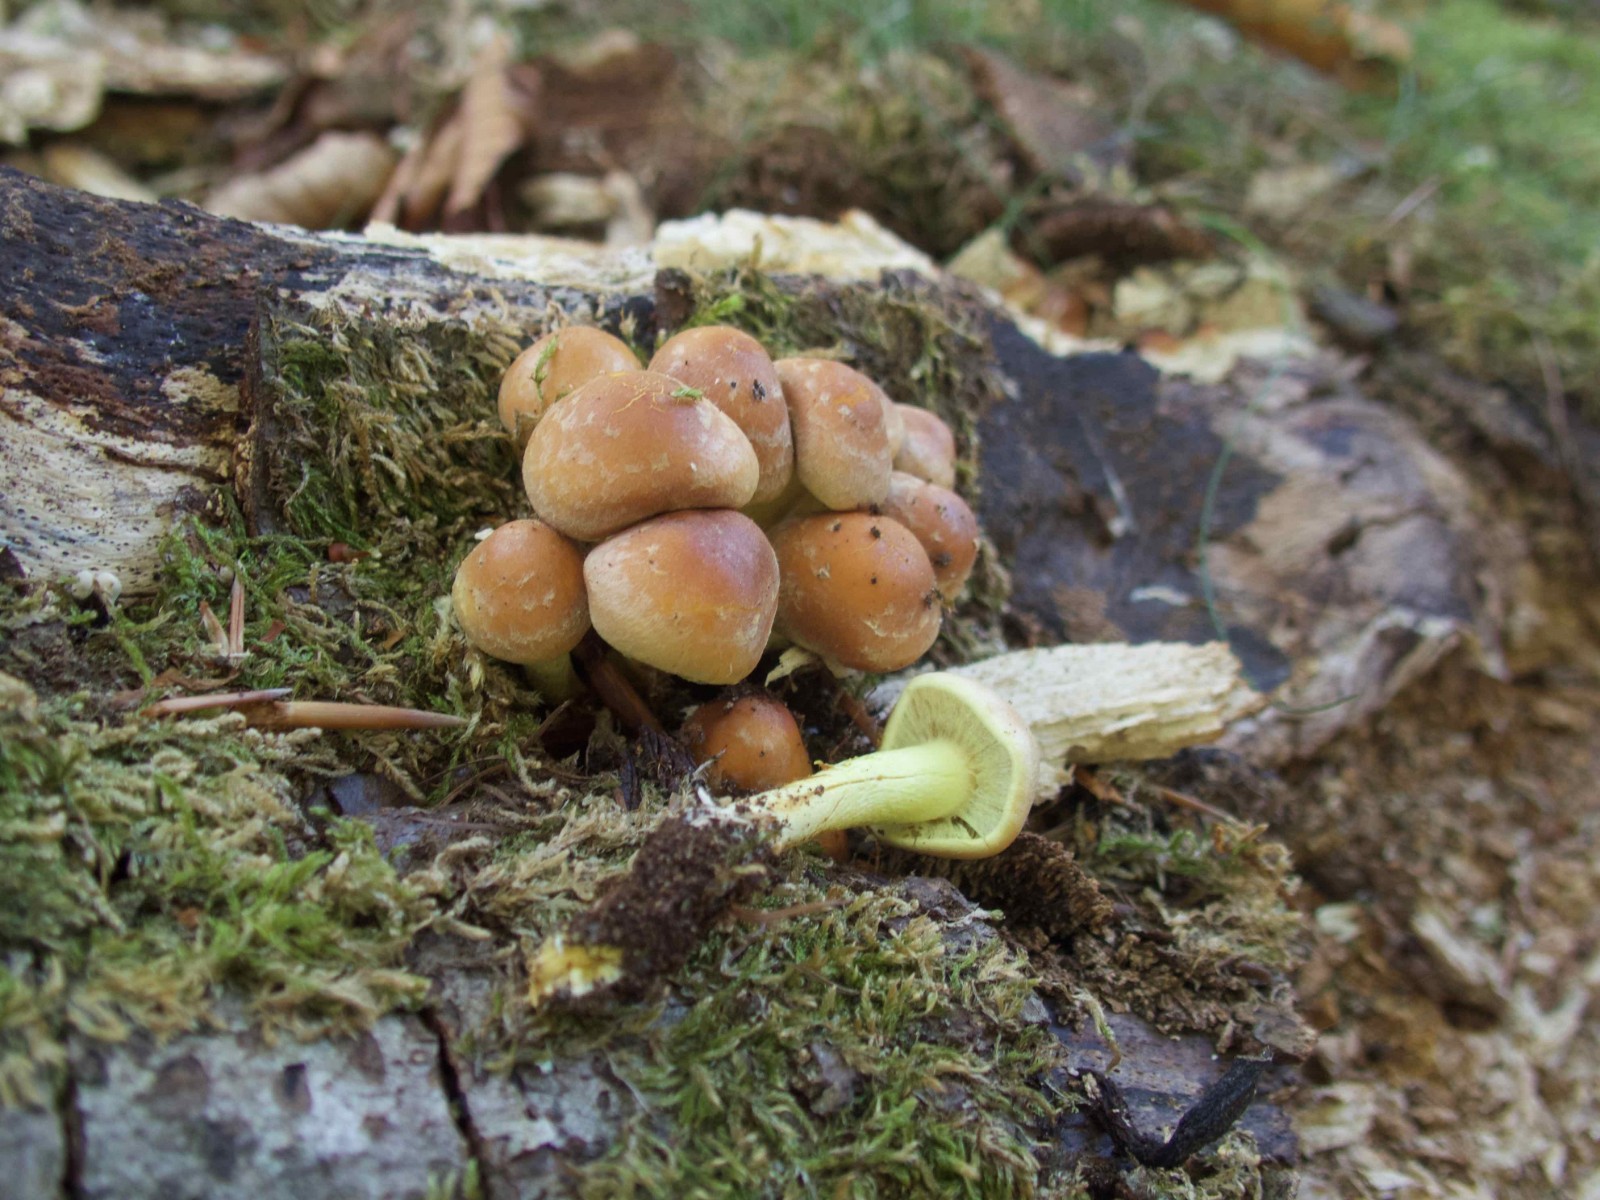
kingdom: Fungi
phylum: Basidiomycota
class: Agaricomycetes
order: Agaricales
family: Strophariaceae
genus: Hypholoma
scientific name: Hypholoma fasciculare
